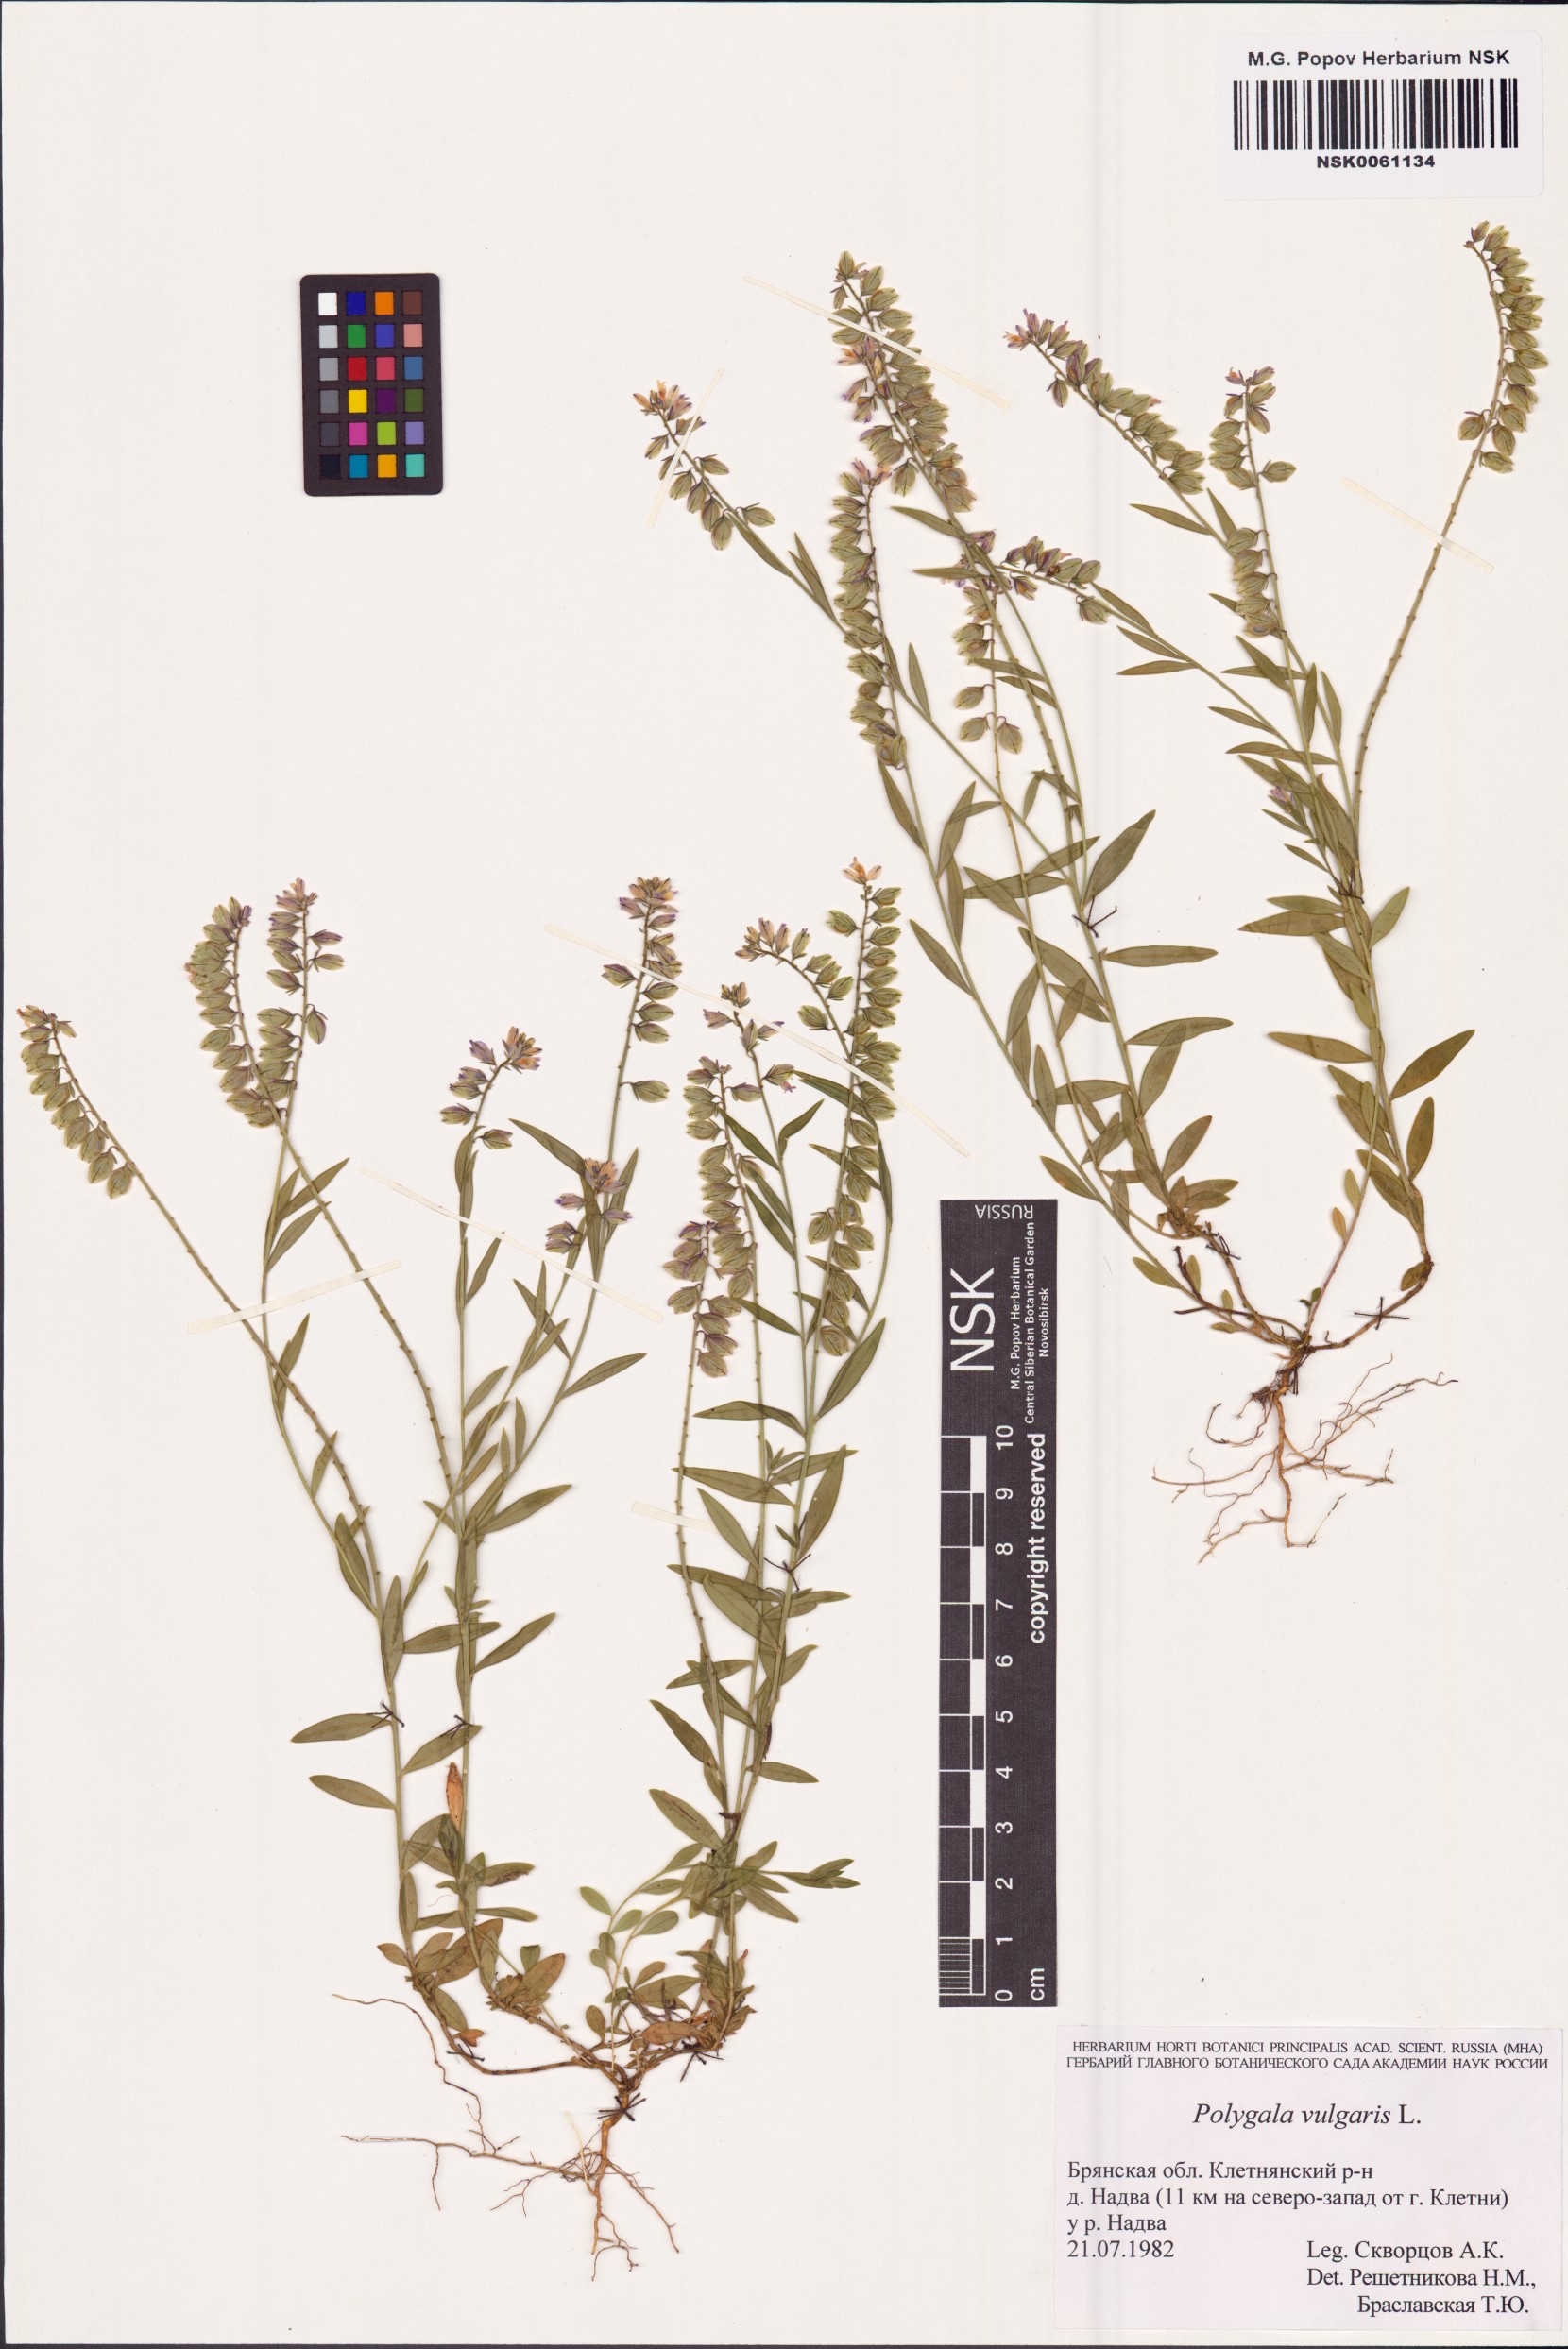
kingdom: Plantae
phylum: Tracheophyta
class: Magnoliopsida
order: Fabales
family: Polygalaceae
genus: Polygala
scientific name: Polygala vulgaris
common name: Common milkwort
